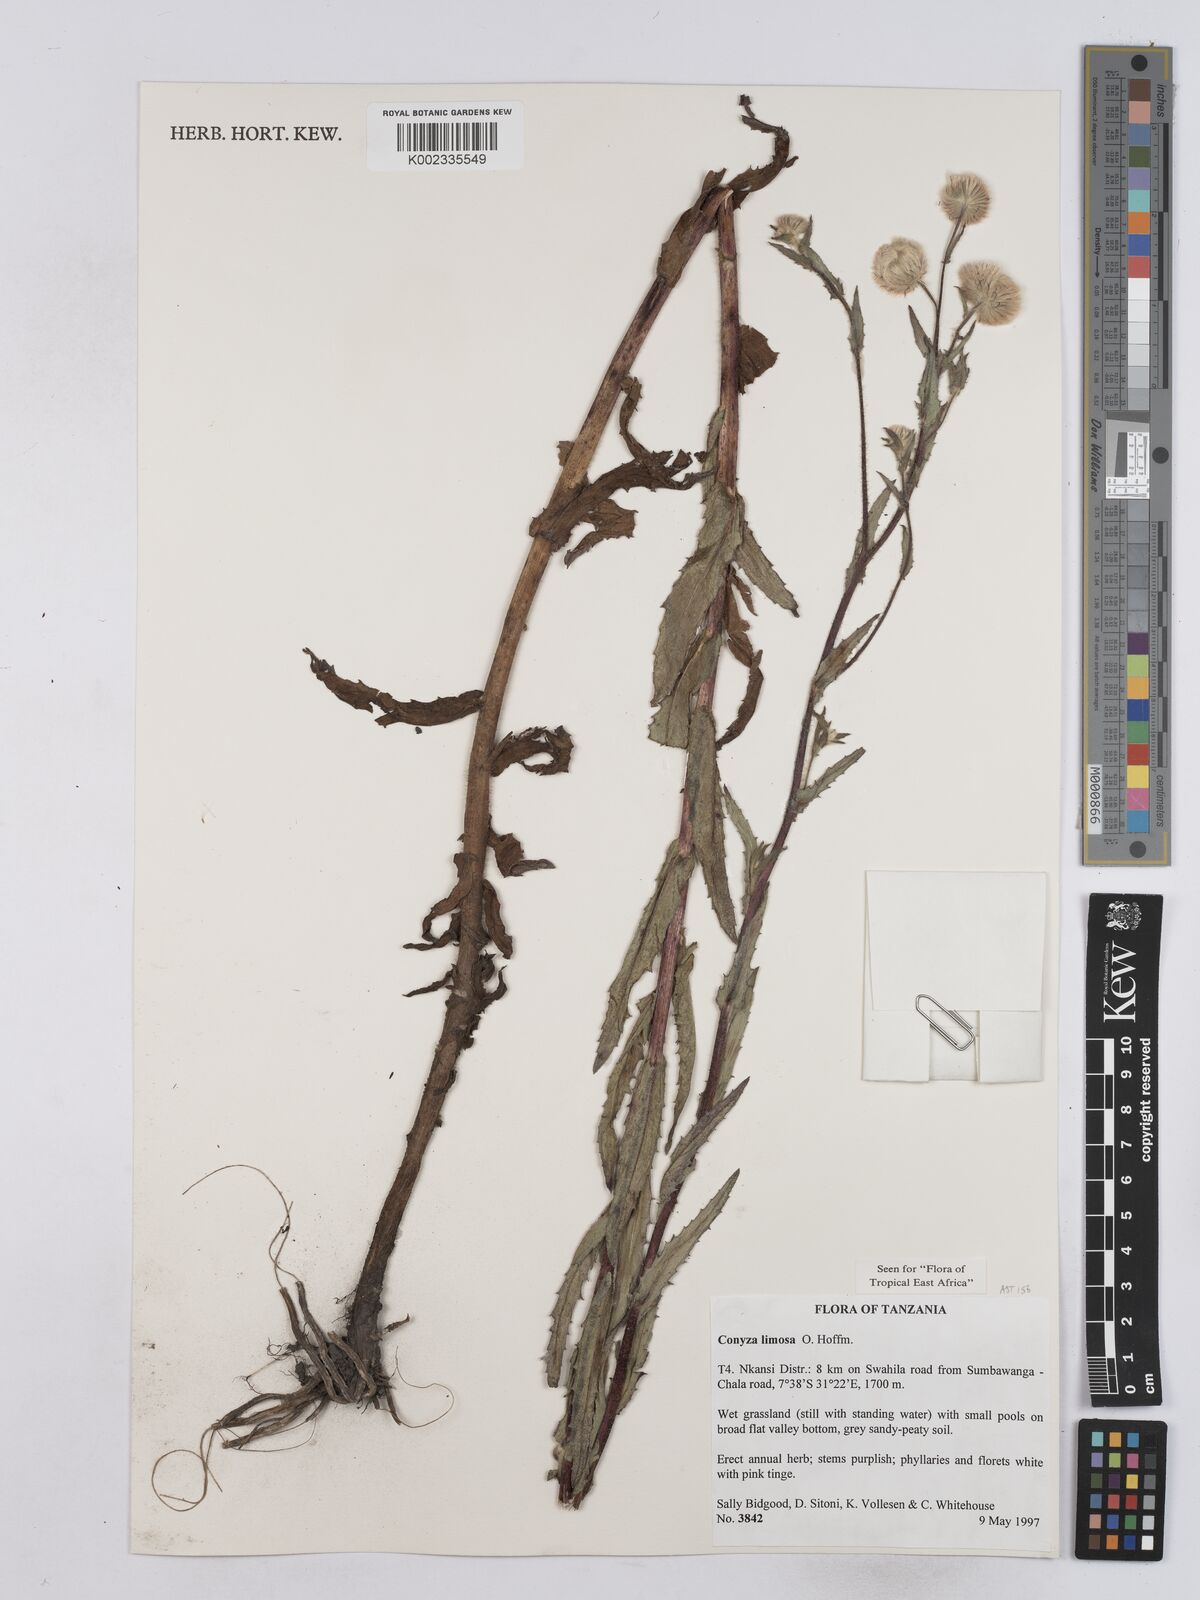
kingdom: Plantae
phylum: Tracheophyta
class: Magnoliopsida
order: Asterales
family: Asteraceae
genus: Conyza
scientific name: Conyza limosa
